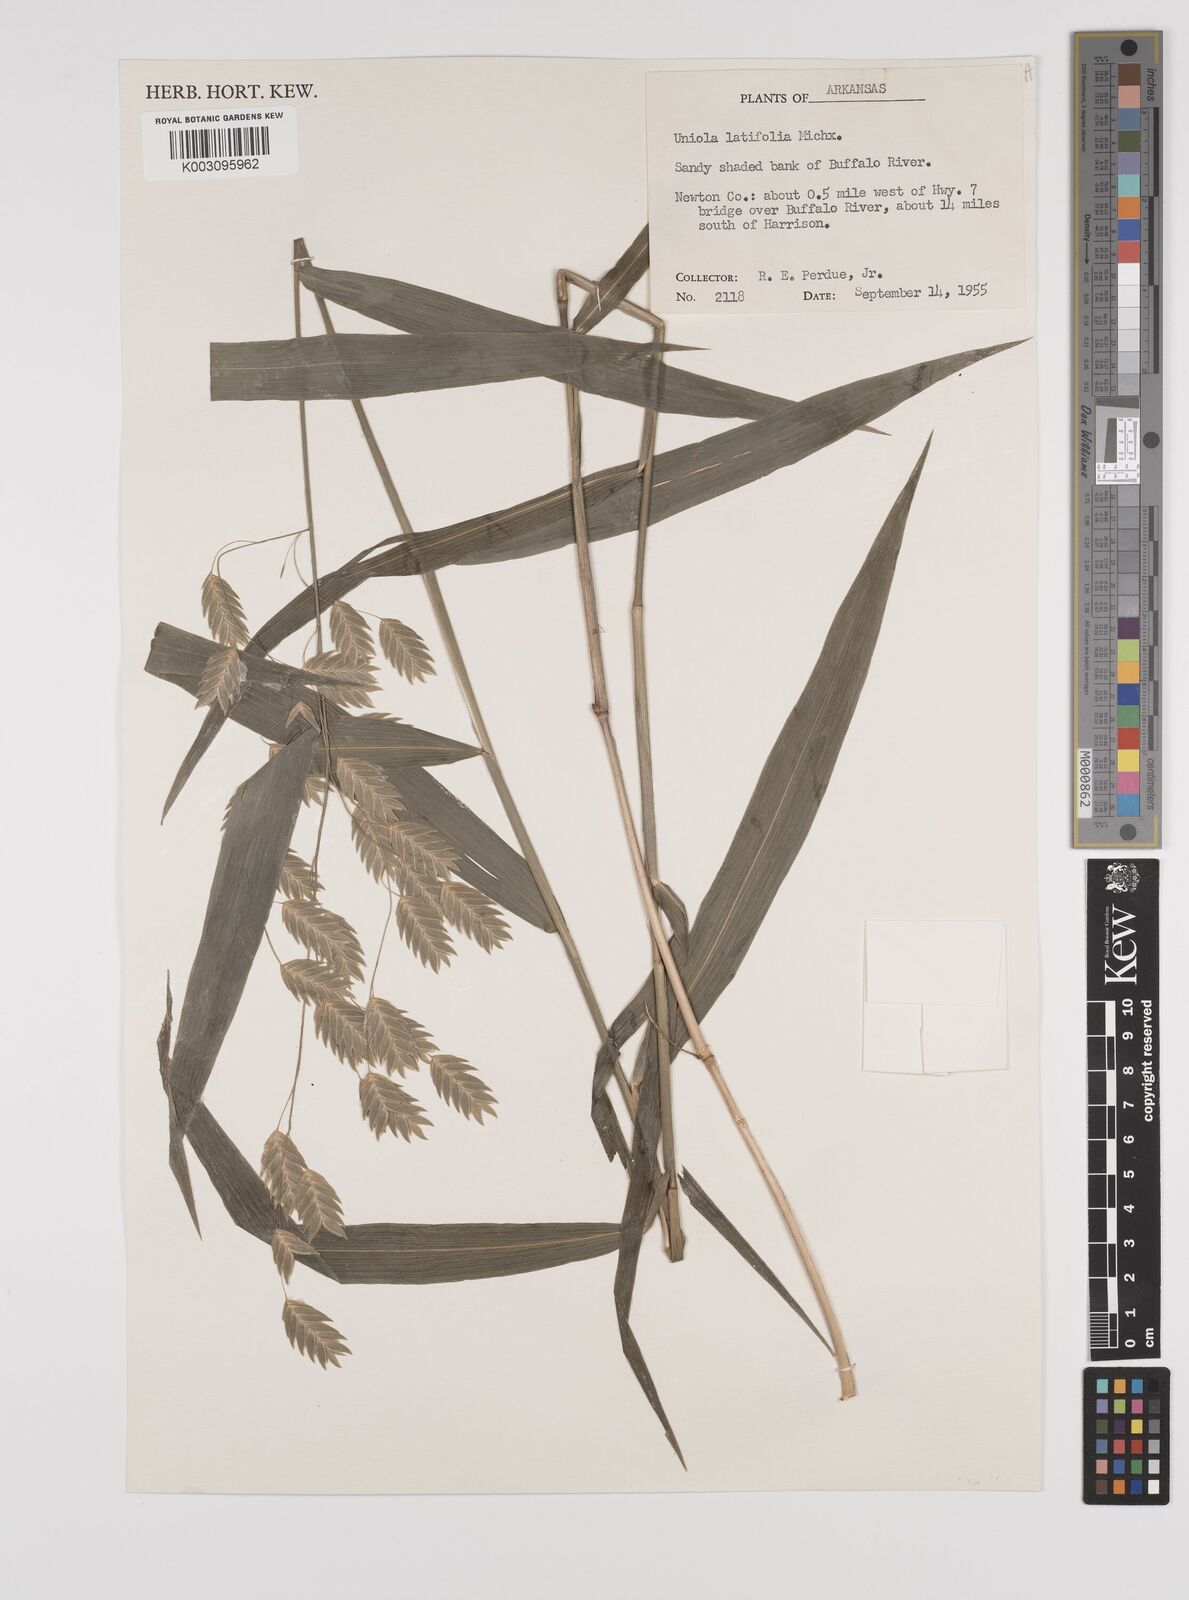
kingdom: Plantae
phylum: Tracheophyta
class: Liliopsida
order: Poales
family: Poaceae
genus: Chasmanthium
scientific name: Chasmanthium latifolium
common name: Broad-leaved chasmanthium
